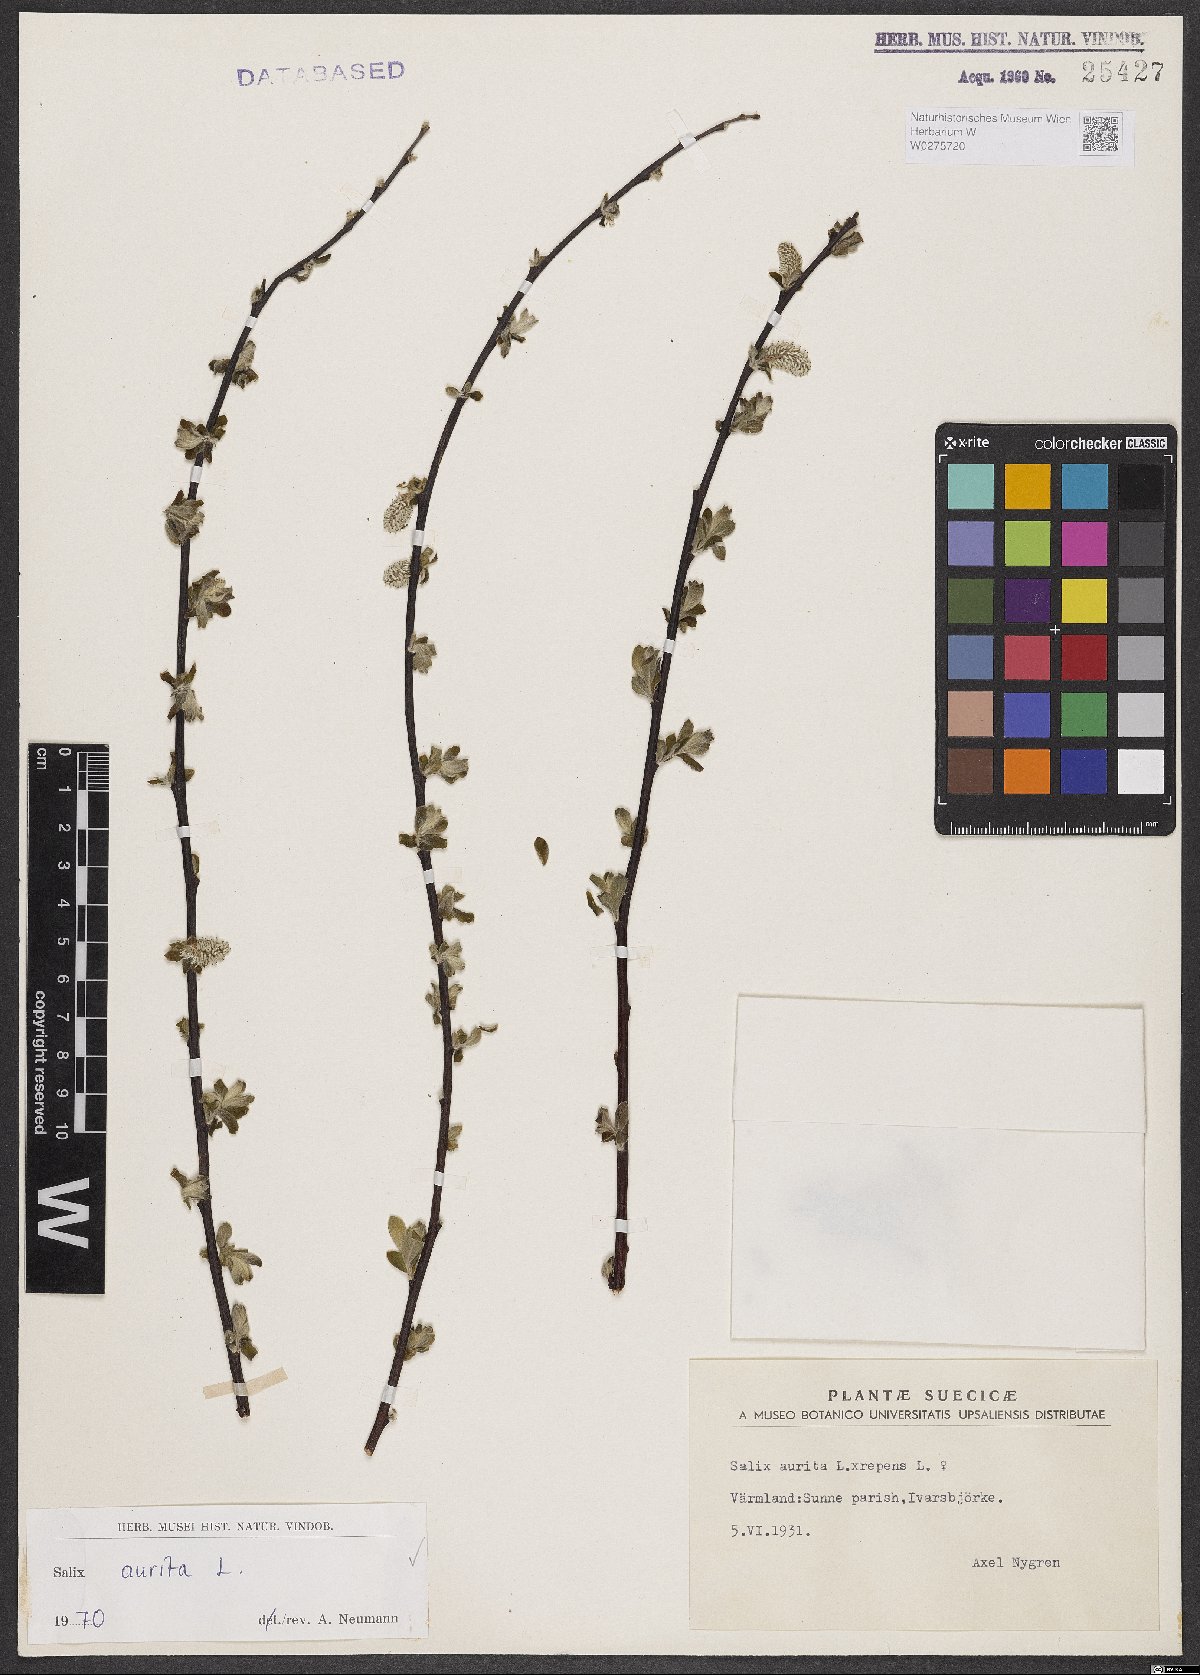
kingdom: Plantae
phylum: Tracheophyta
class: Magnoliopsida
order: Malpighiales
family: Salicaceae
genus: Salix
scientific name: Salix aurita
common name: Eared willow
